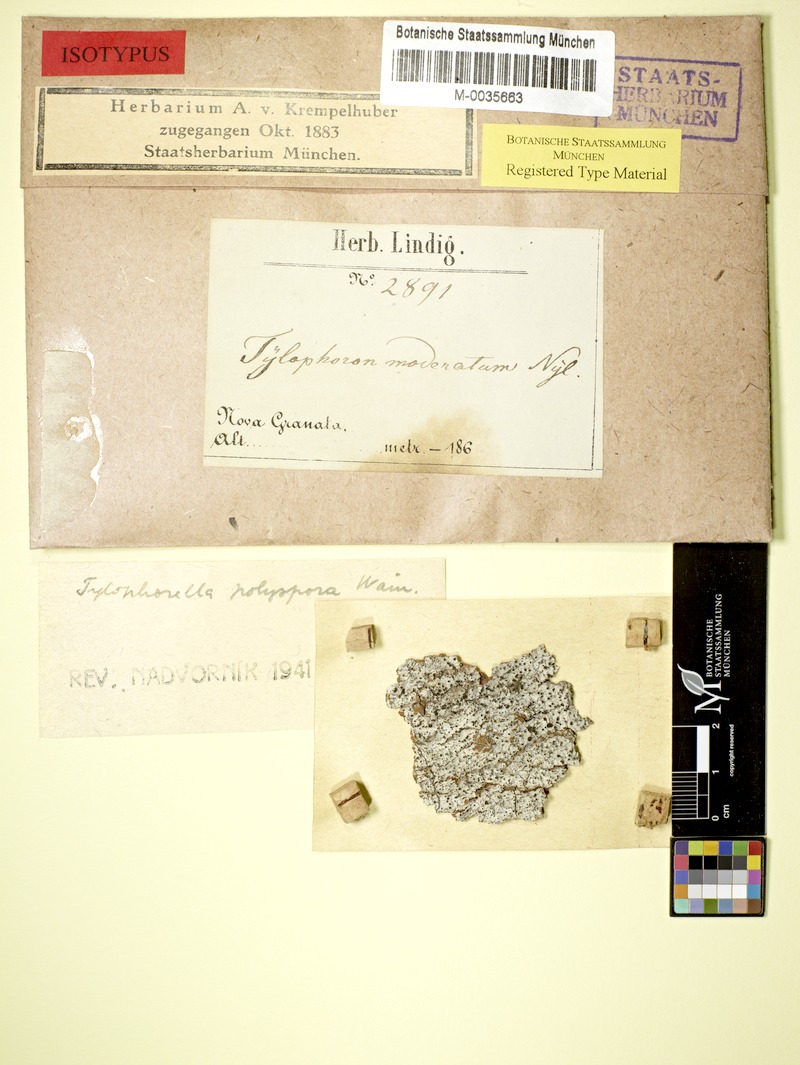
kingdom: Fungi
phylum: Ascomycota
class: Arthoniomycetes
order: Arthoniales
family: Arthoniaceae
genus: Tylophorella
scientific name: Tylophorella pyrenocarpoides
